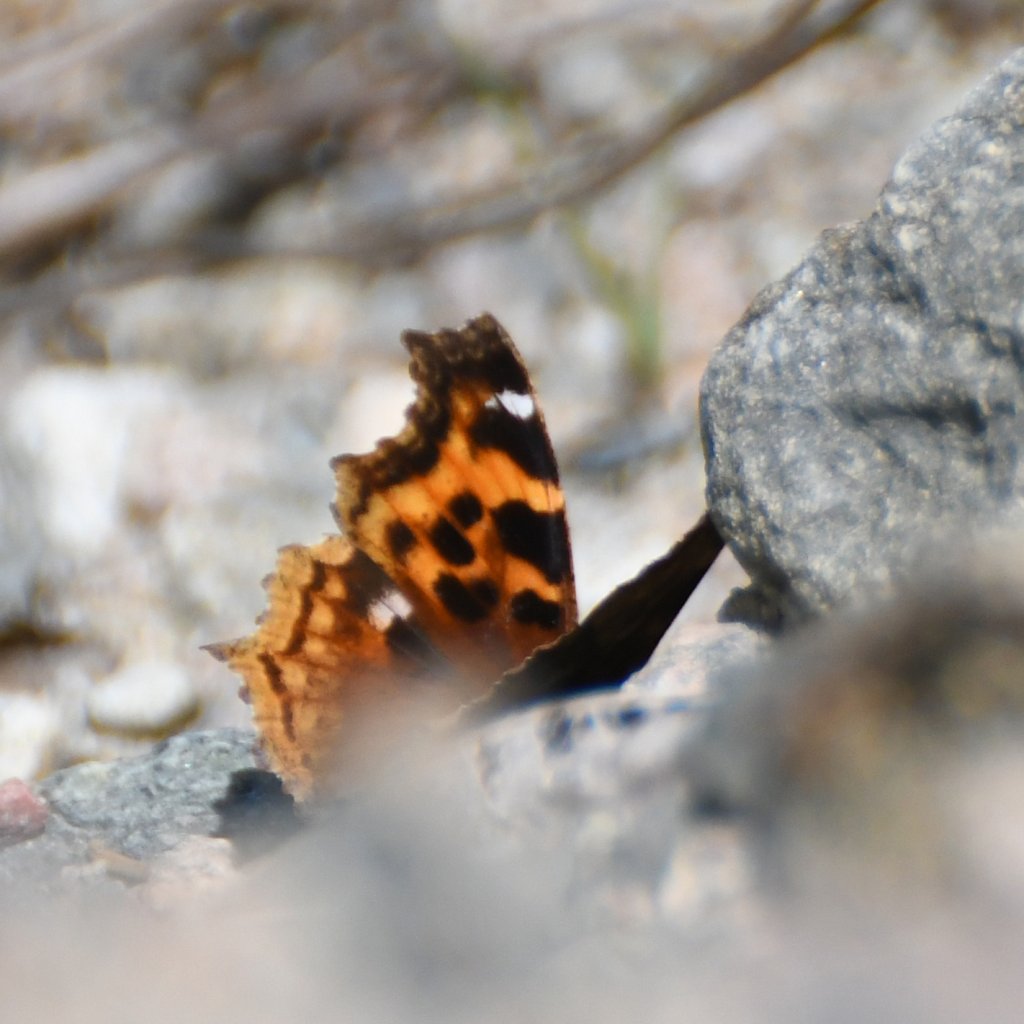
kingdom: Animalia
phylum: Arthropoda
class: Insecta
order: Lepidoptera
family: Nymphalidae
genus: Polygonia
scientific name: Polygonia vaualbum
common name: Compton Tortoiseshell
